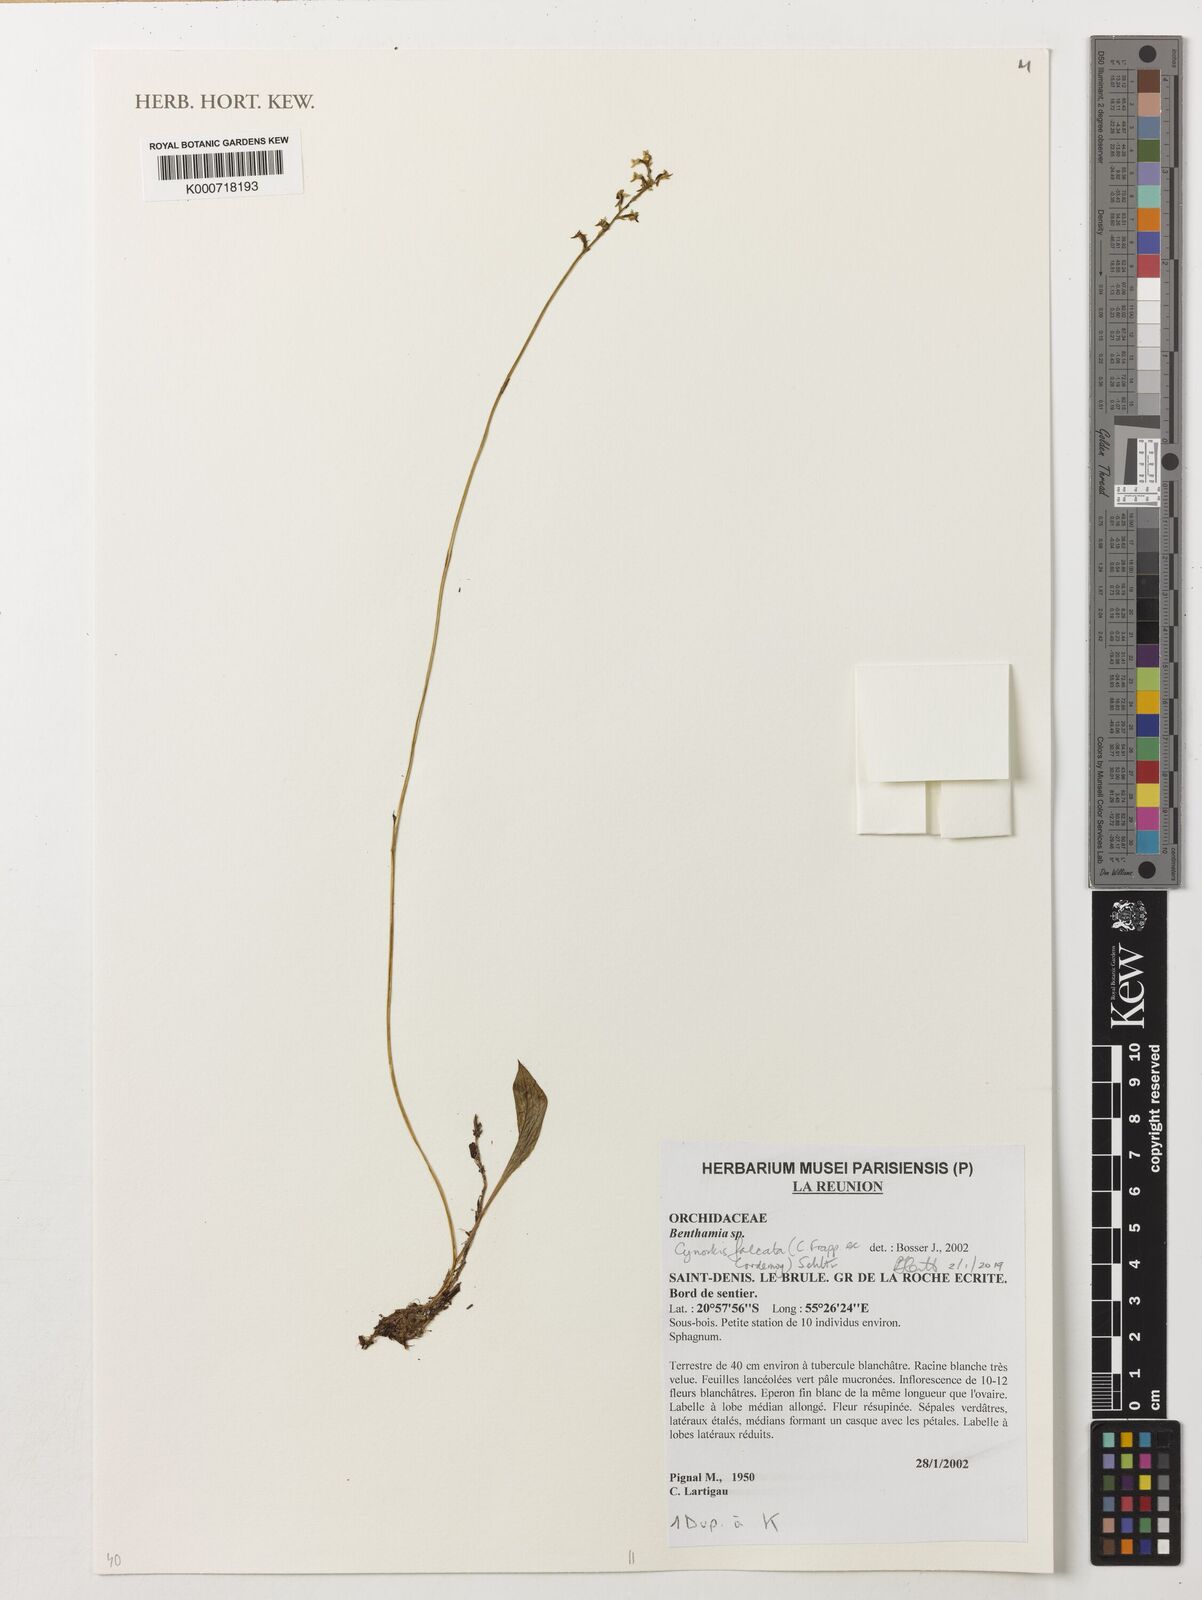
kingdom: Plantae
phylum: Tracheophyta
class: Liliopsida
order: Asparagales
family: Orchidaceae
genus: Benthamia
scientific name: Benthamia
